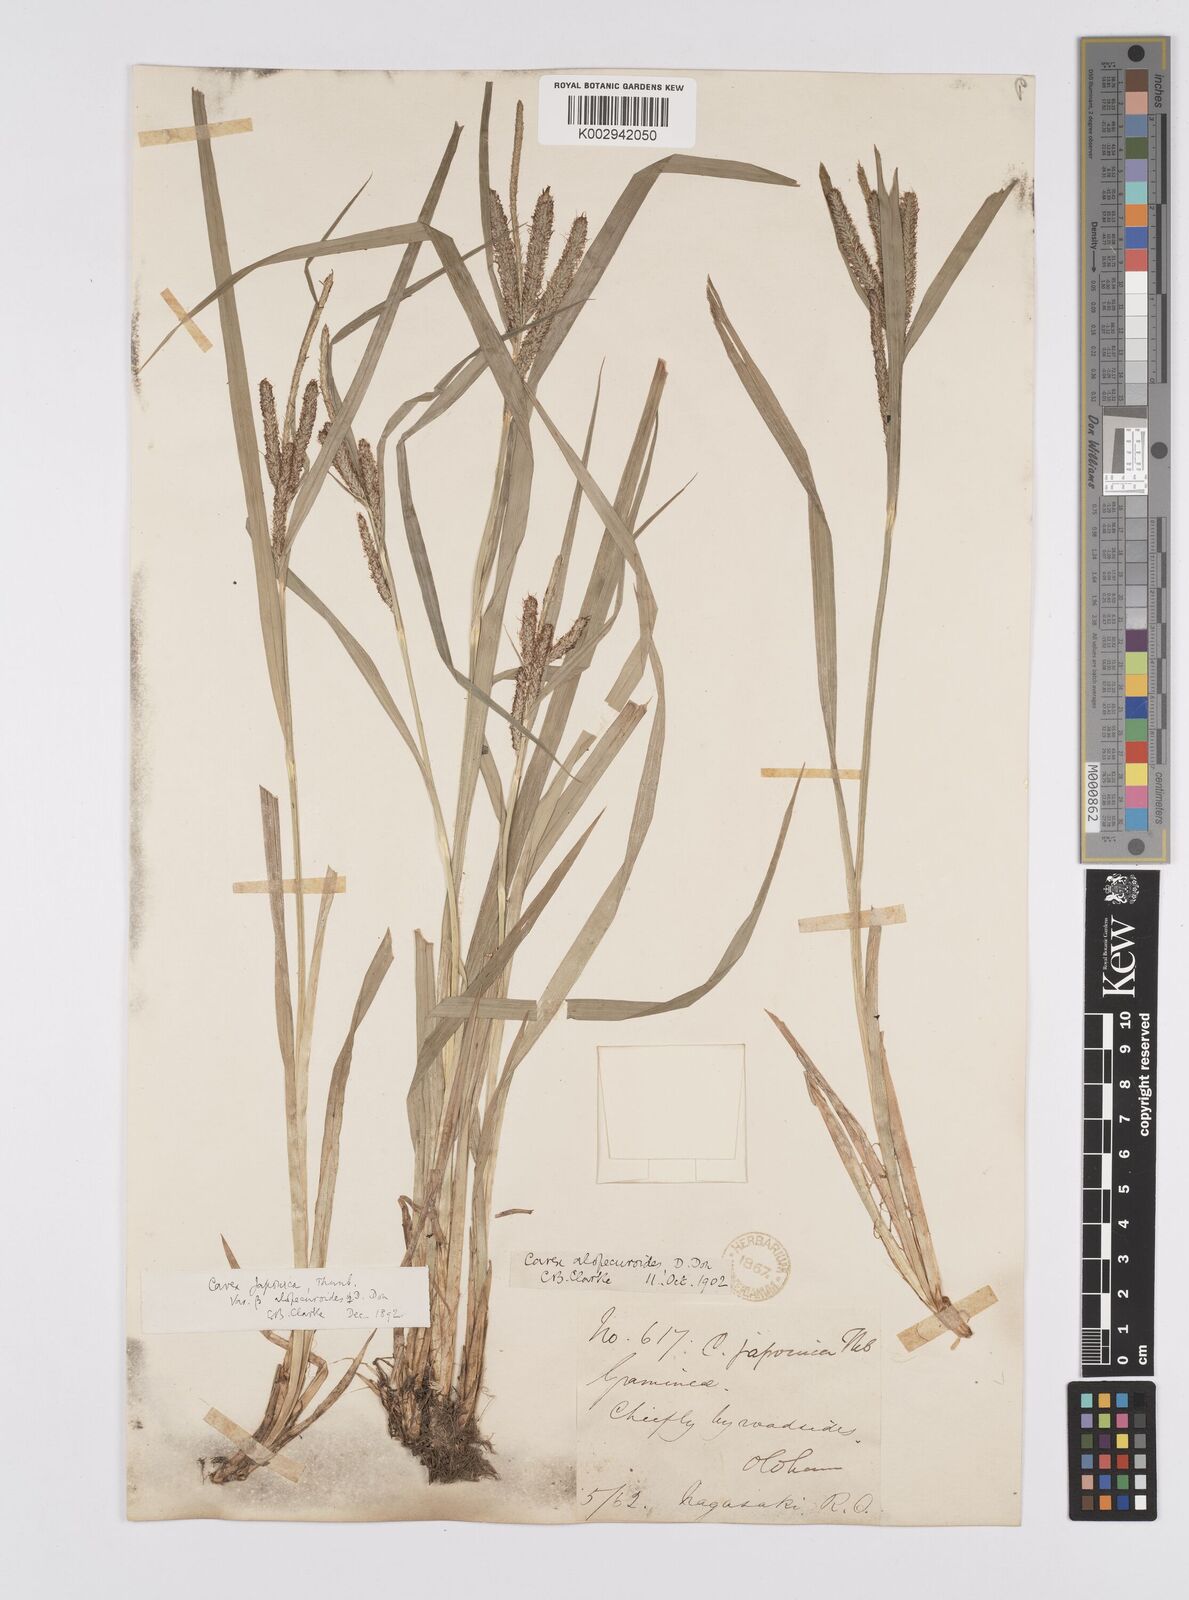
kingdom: Plantae
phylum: Tracheophyta
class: Liliopsida
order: Poales
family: Cyperaceae
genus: Carex
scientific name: Carex japonica
